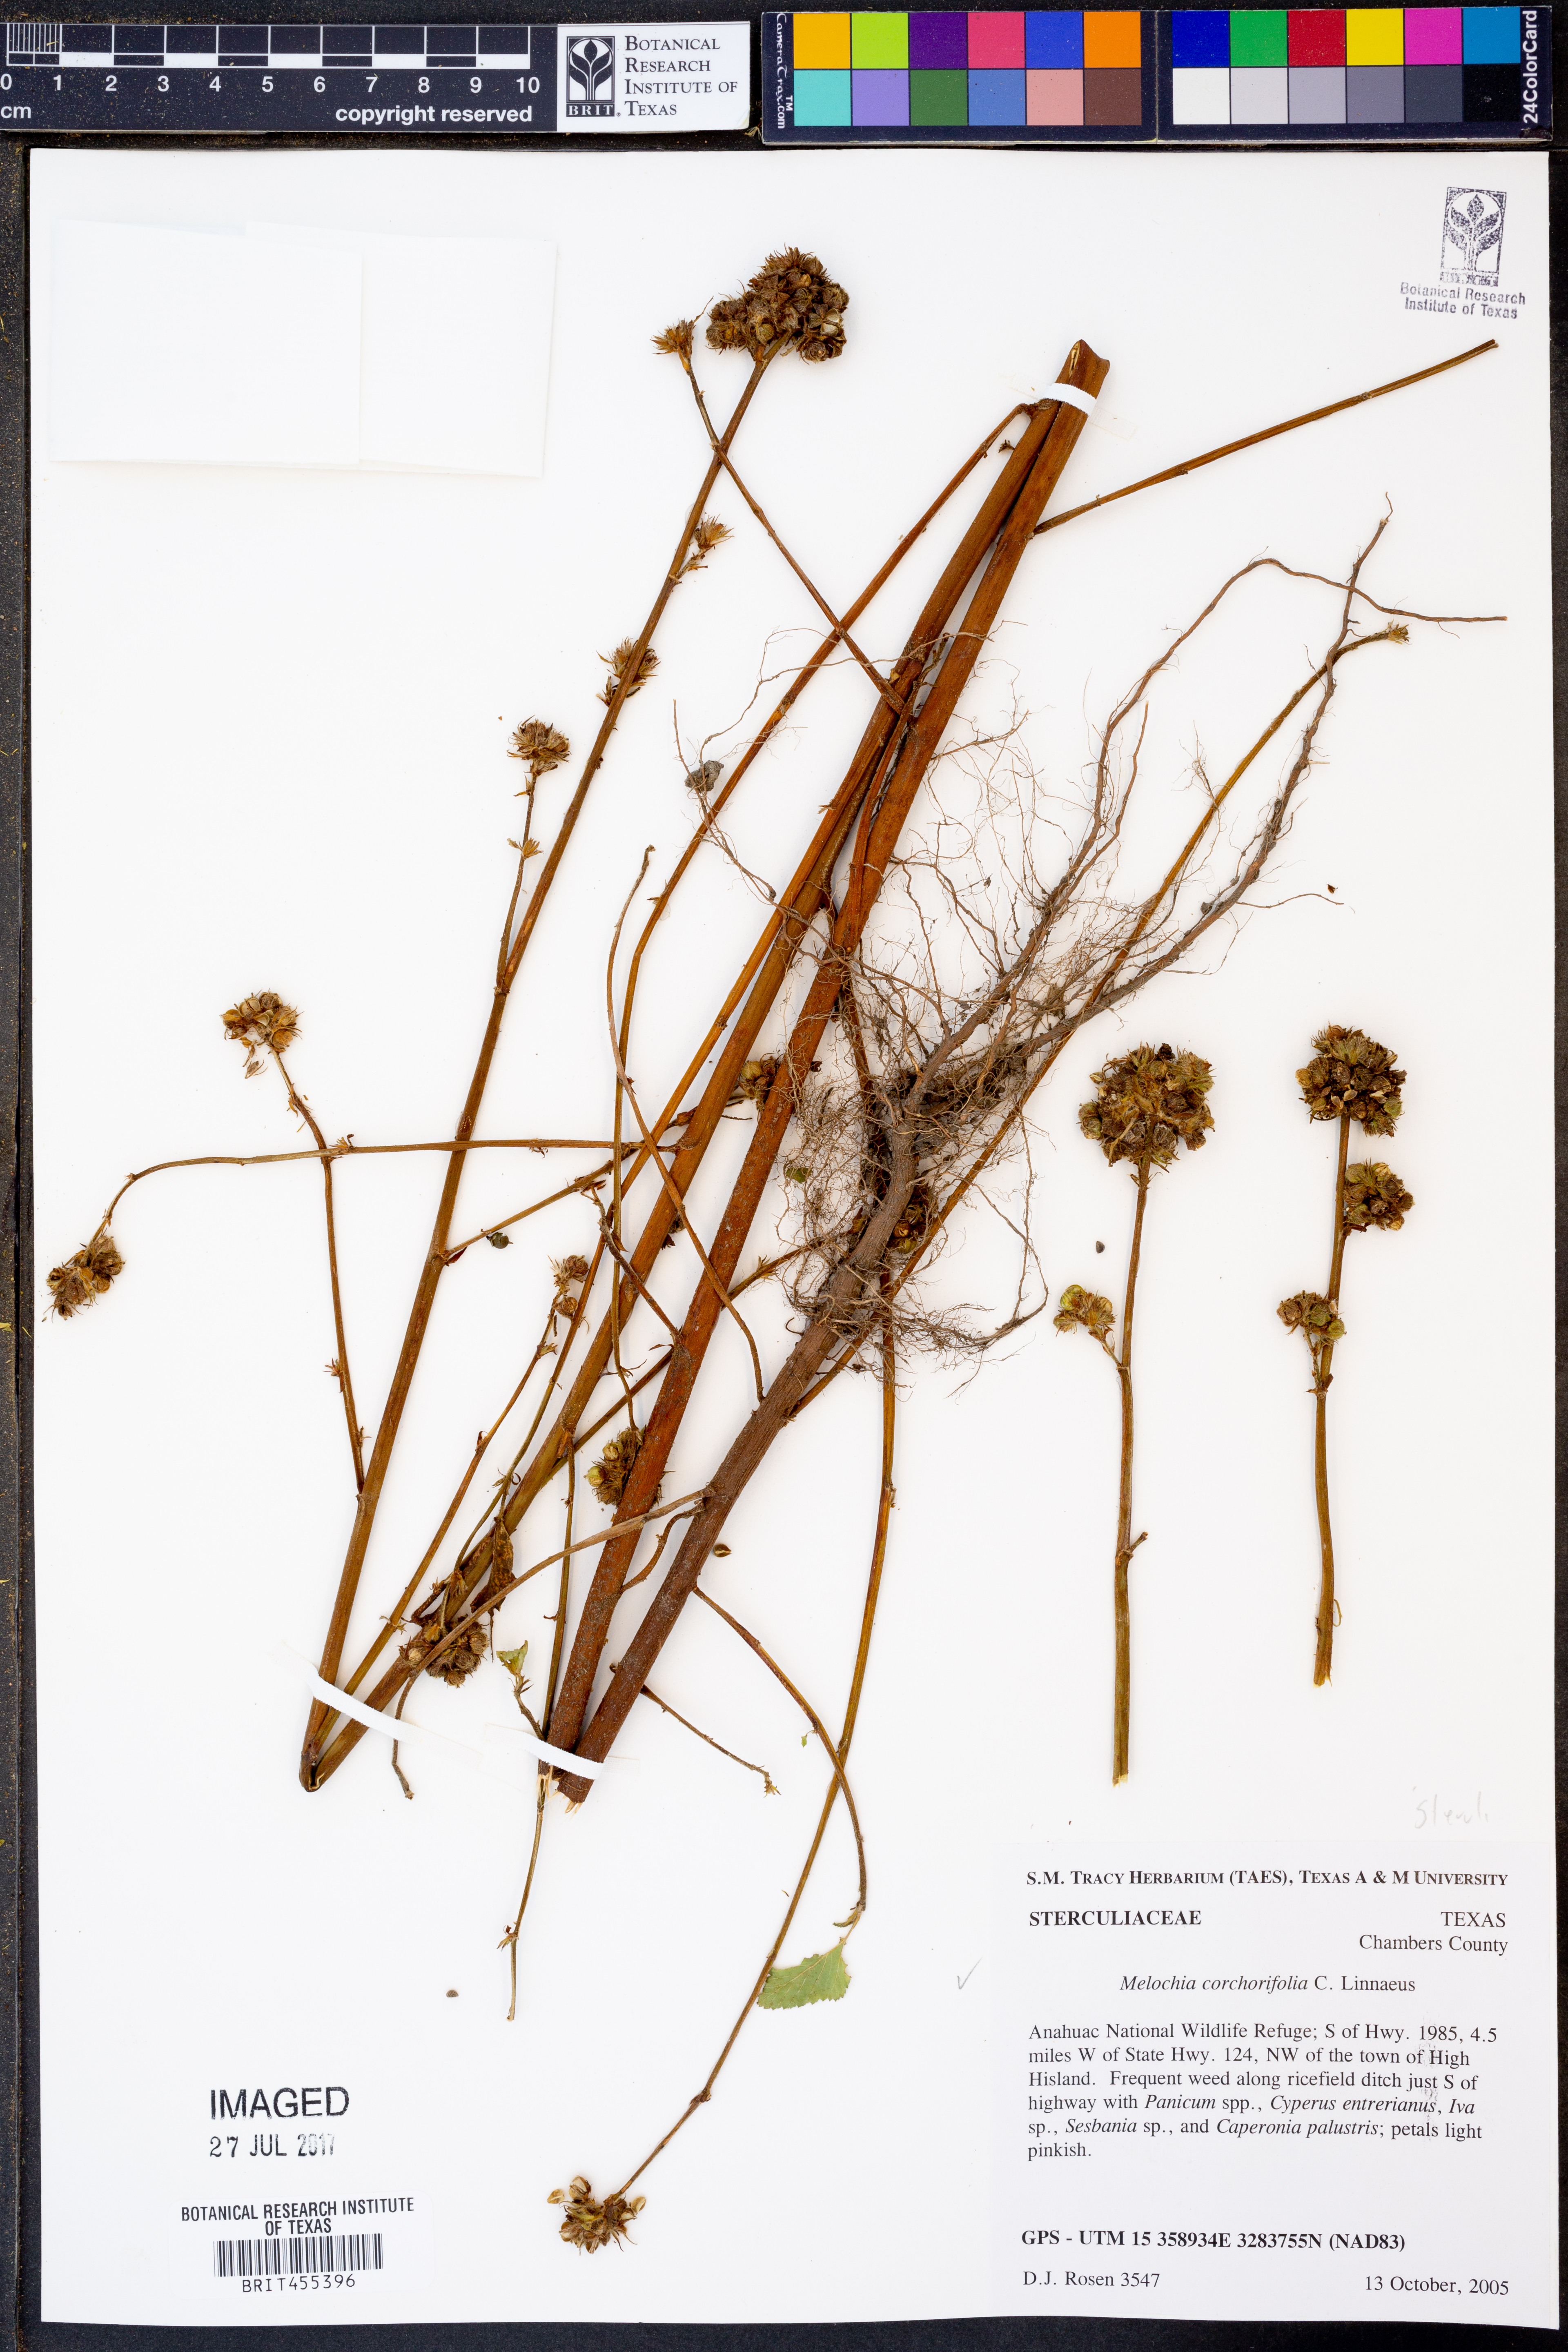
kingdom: Plantae
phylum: Tracheophyta
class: Magnoliopsida
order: Malvales
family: Malvaceae
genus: Melochia
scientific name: Melochia corchorifolia
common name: Chocolateweed
